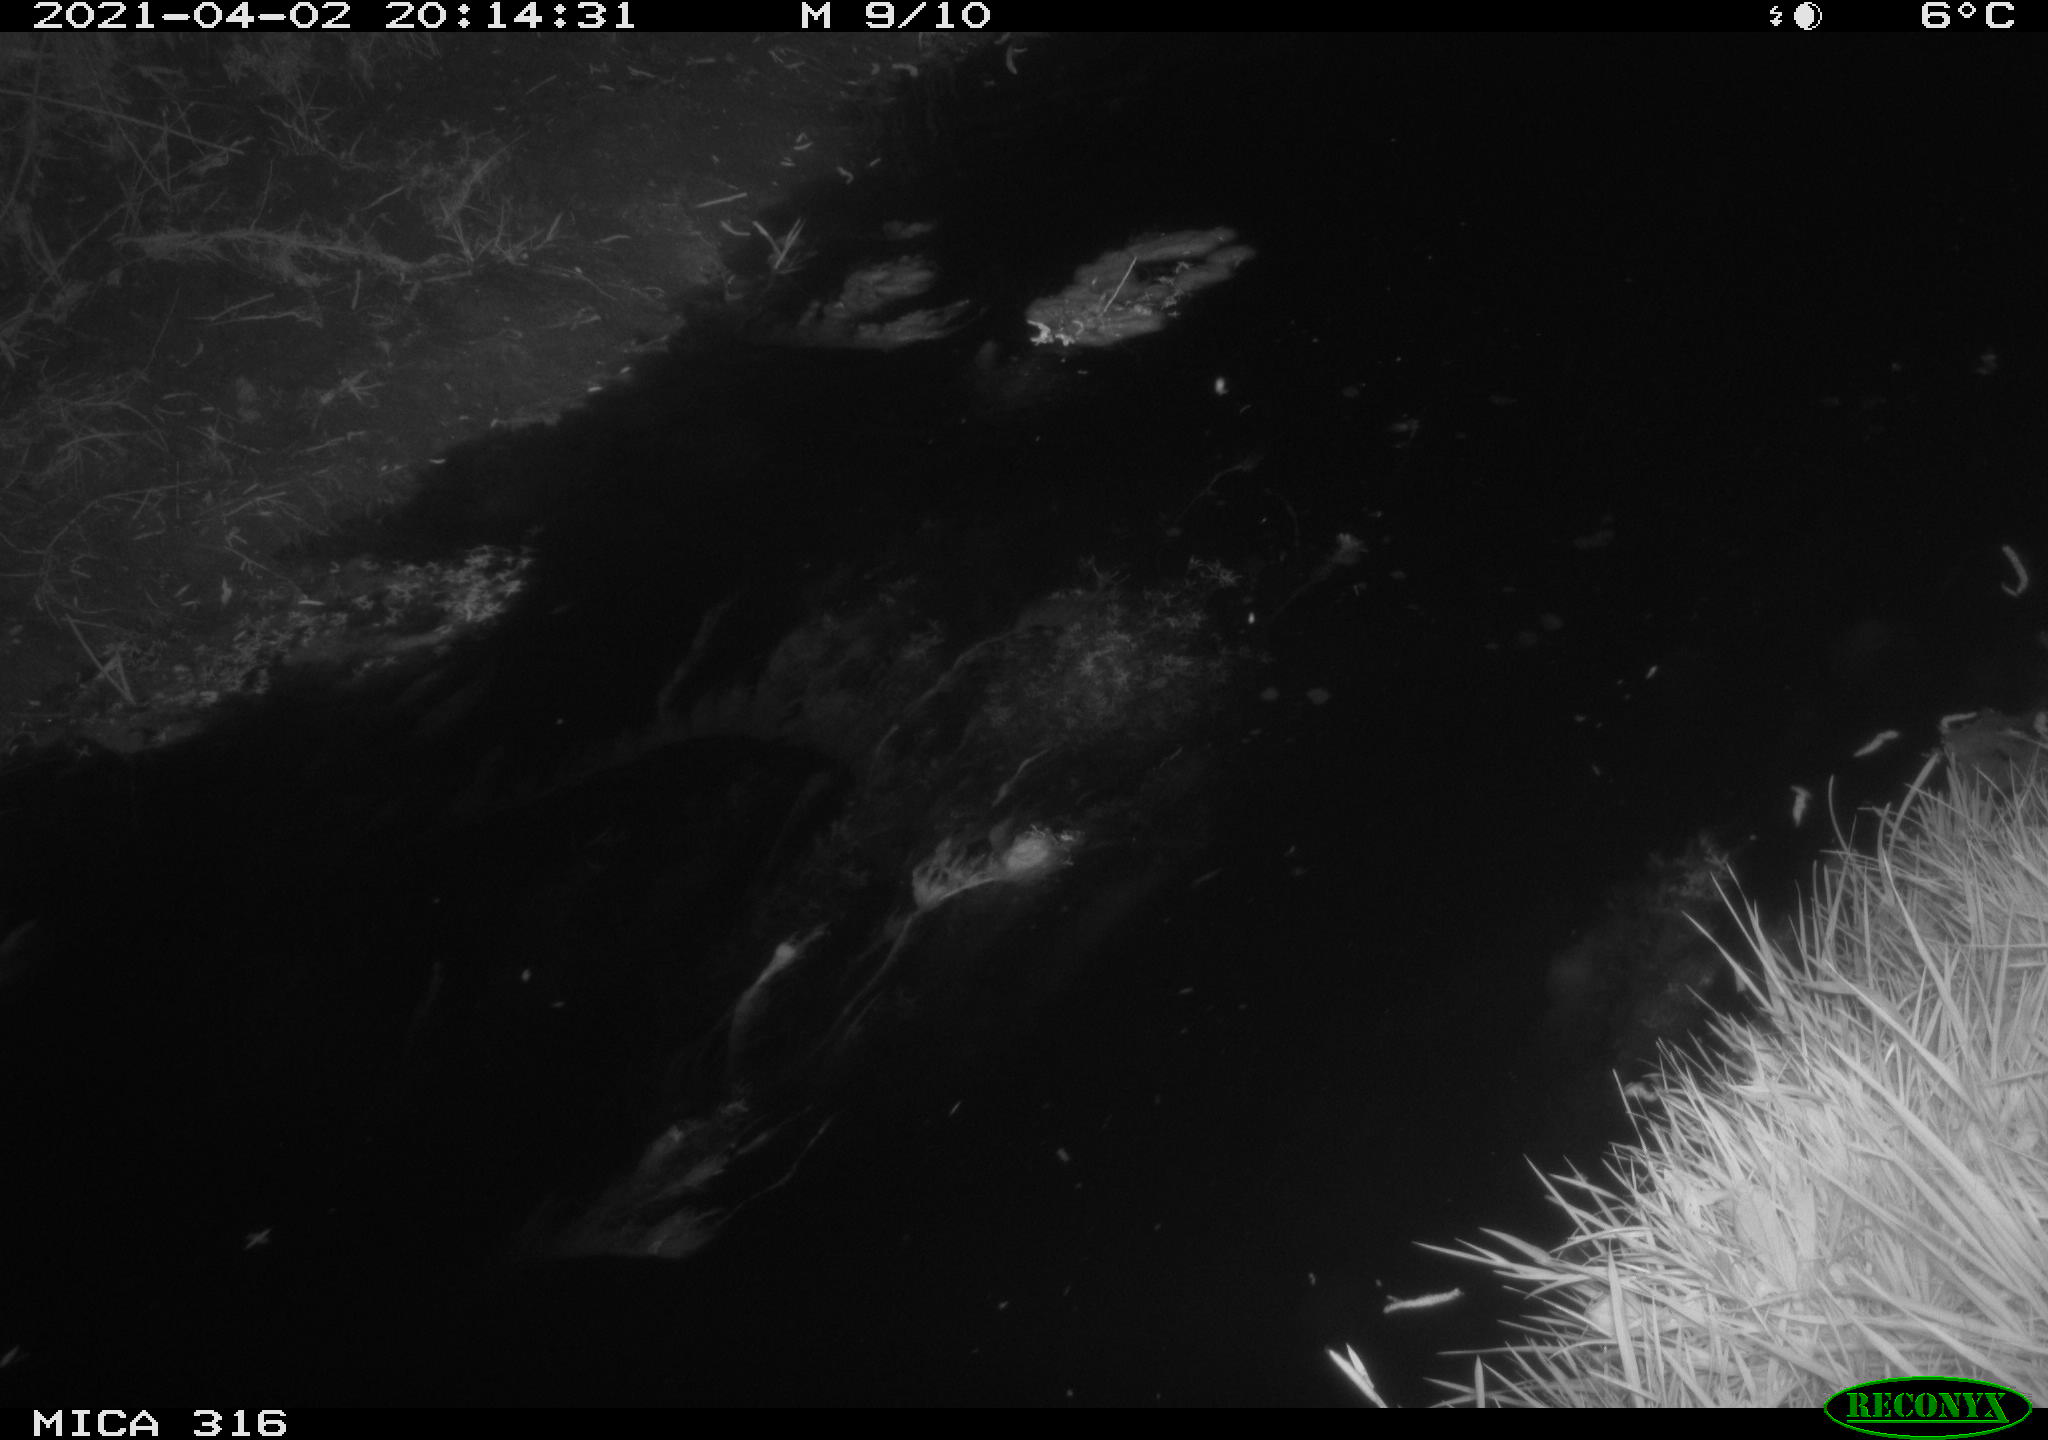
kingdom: Animalia
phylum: Chordata
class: Aves
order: Anseriformes
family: Anatidae
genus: Anas
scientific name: Anas platyrhynchos
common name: Mallard
